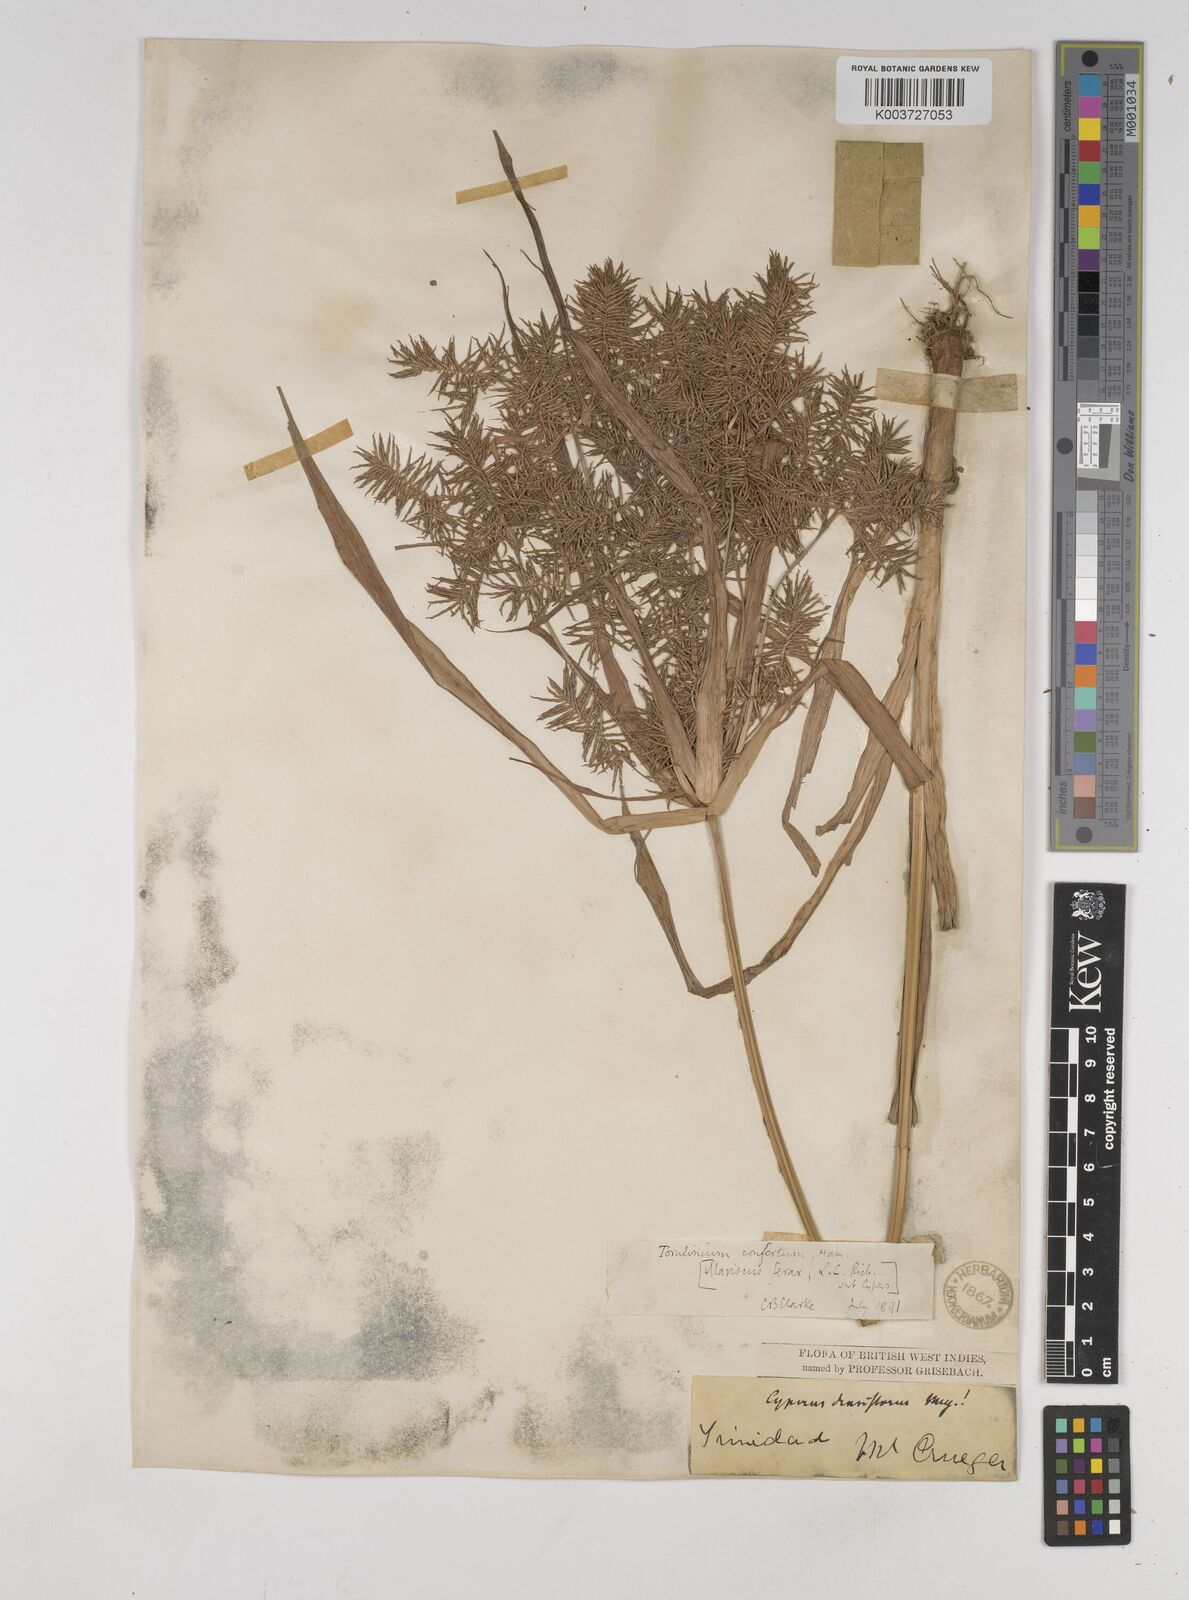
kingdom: Plantae
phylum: Tracheophyta
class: Liliopsida
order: Poales
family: Cyperaceae
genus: Cyperus
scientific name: Cyperus odoratus
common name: Fragrant flatsedge
